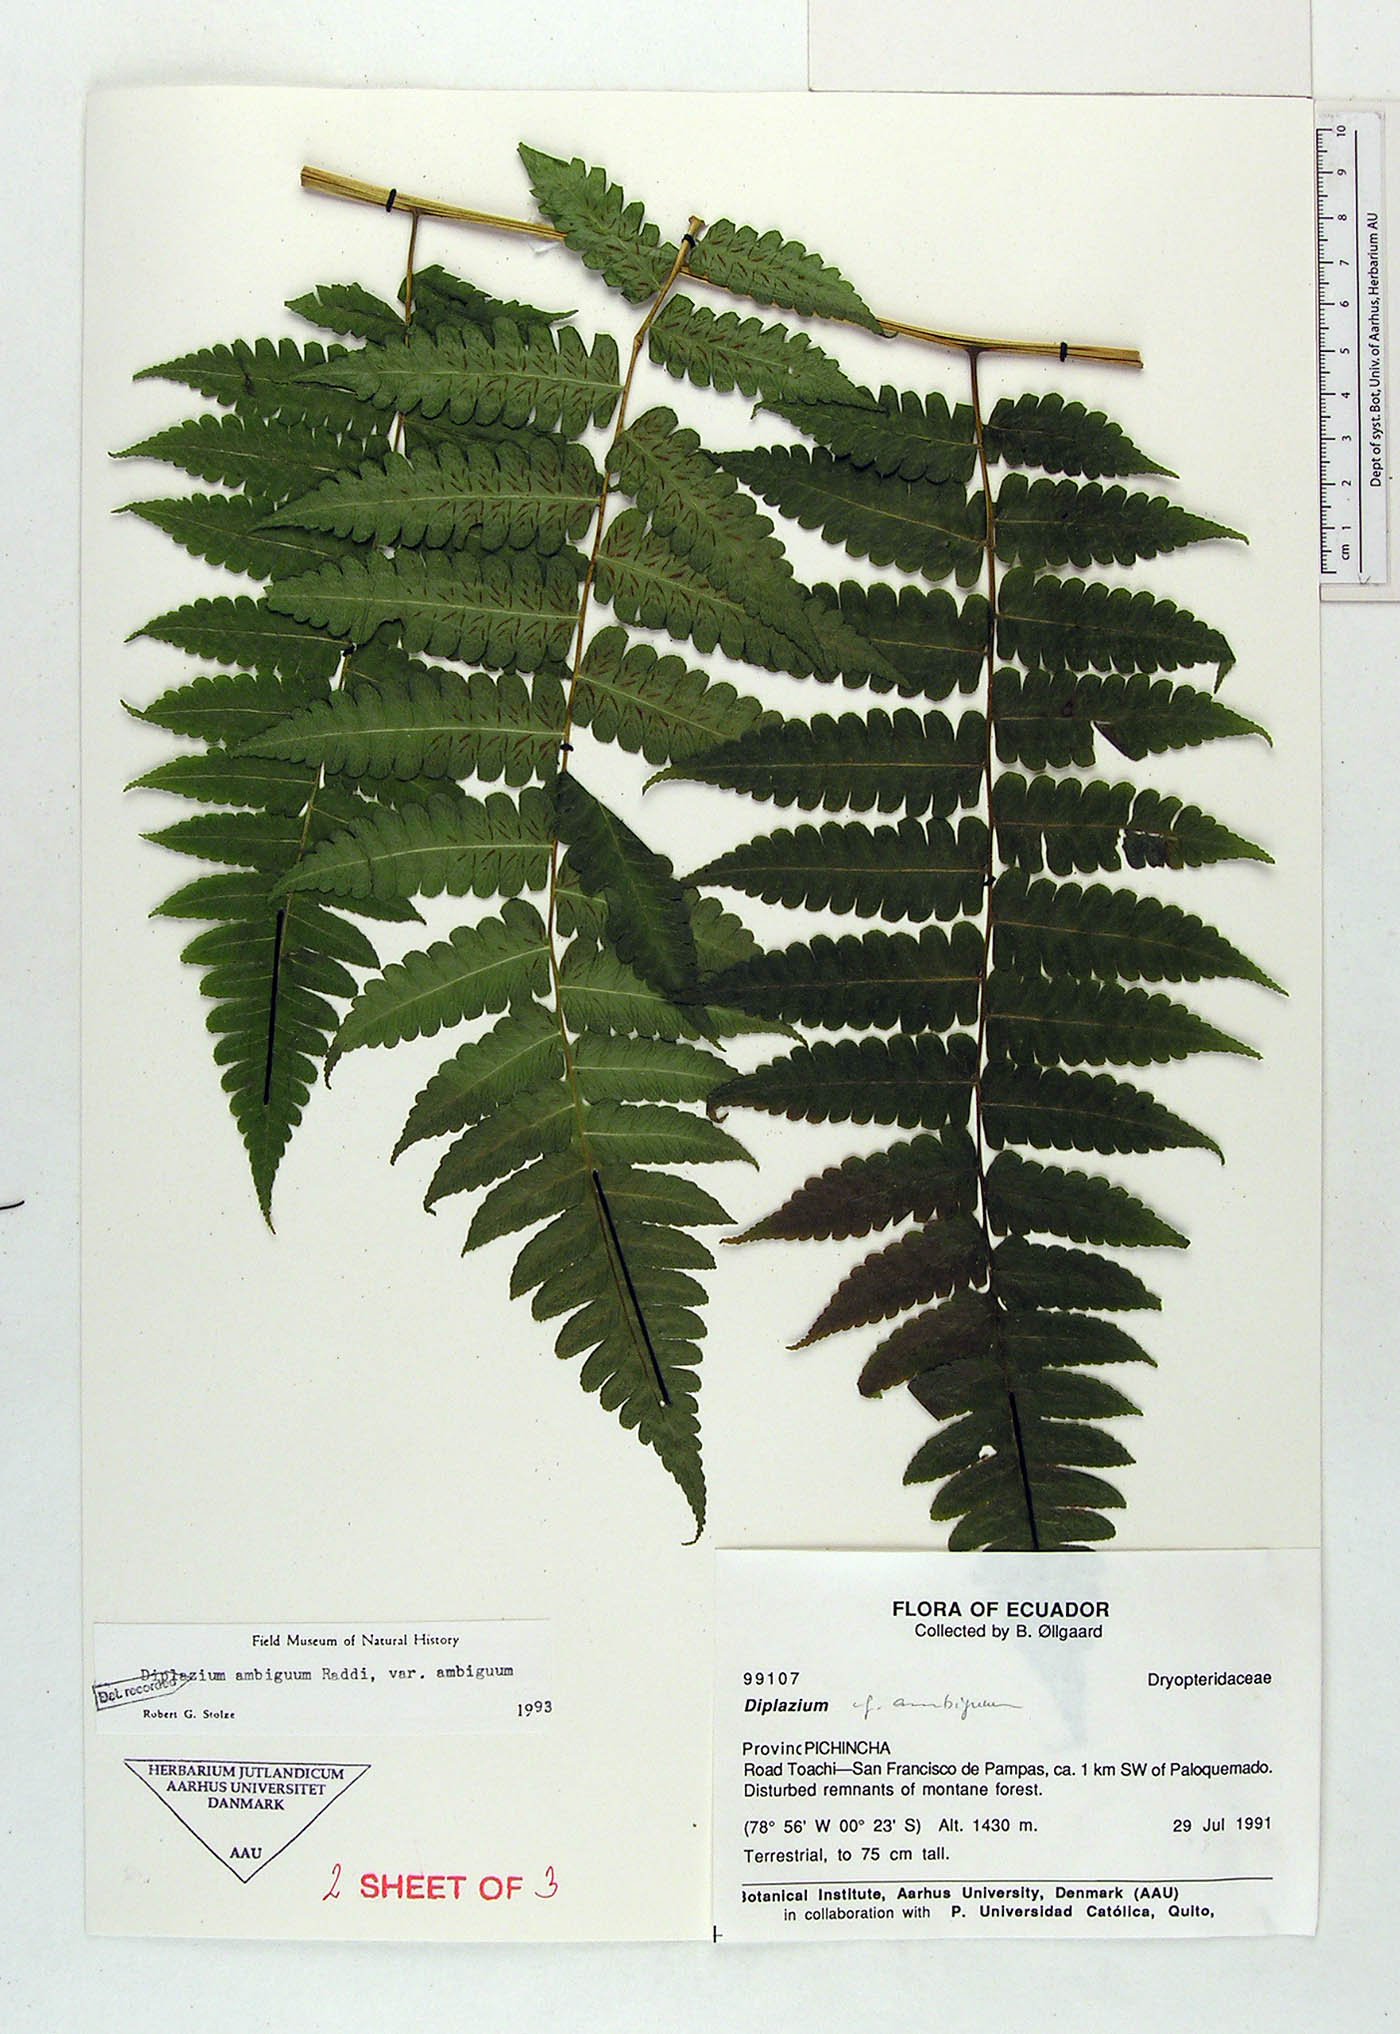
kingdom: Plantae
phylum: Tracheophyta
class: Polypodiopsida
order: Polypodiales
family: Athyriaceae
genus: Diplazium
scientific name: Diplazium ambiguum
